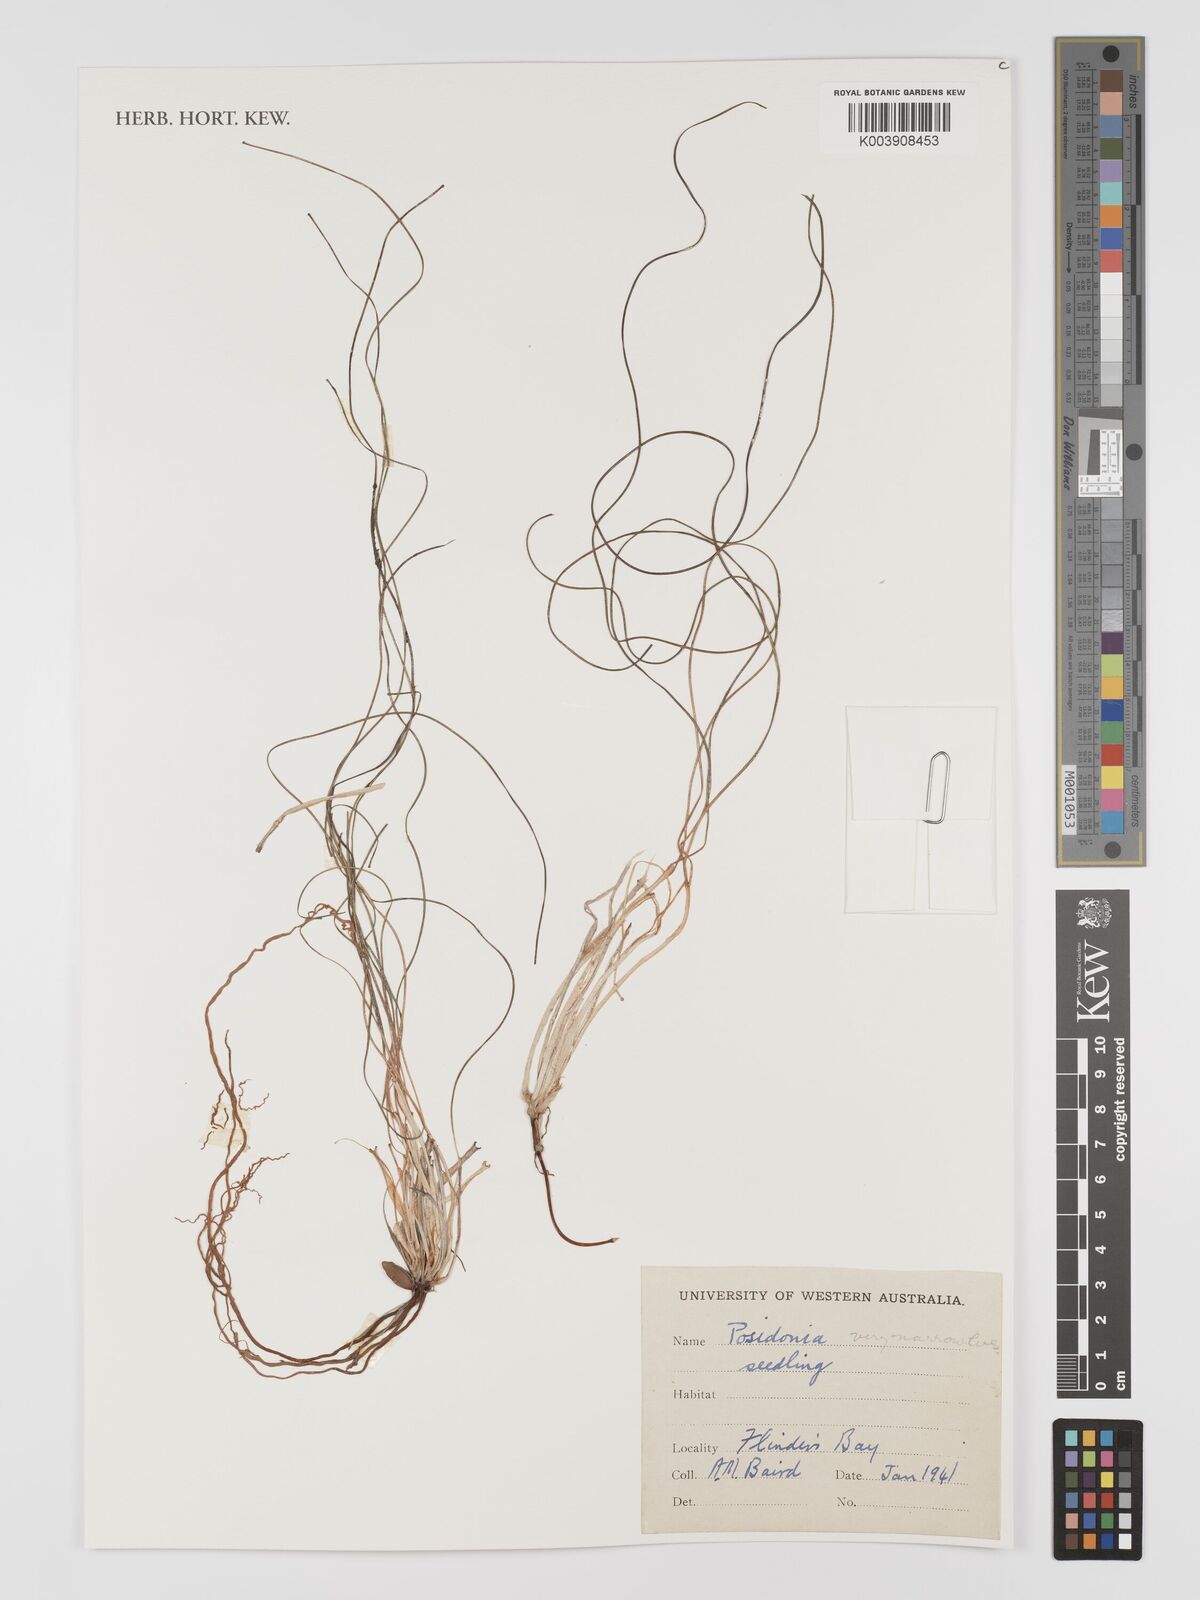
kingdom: Plantae
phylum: Tracheophyta
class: Liliopsida
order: Alismatales
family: Posidoniaceae
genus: Posidonia
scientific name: Posidonia
